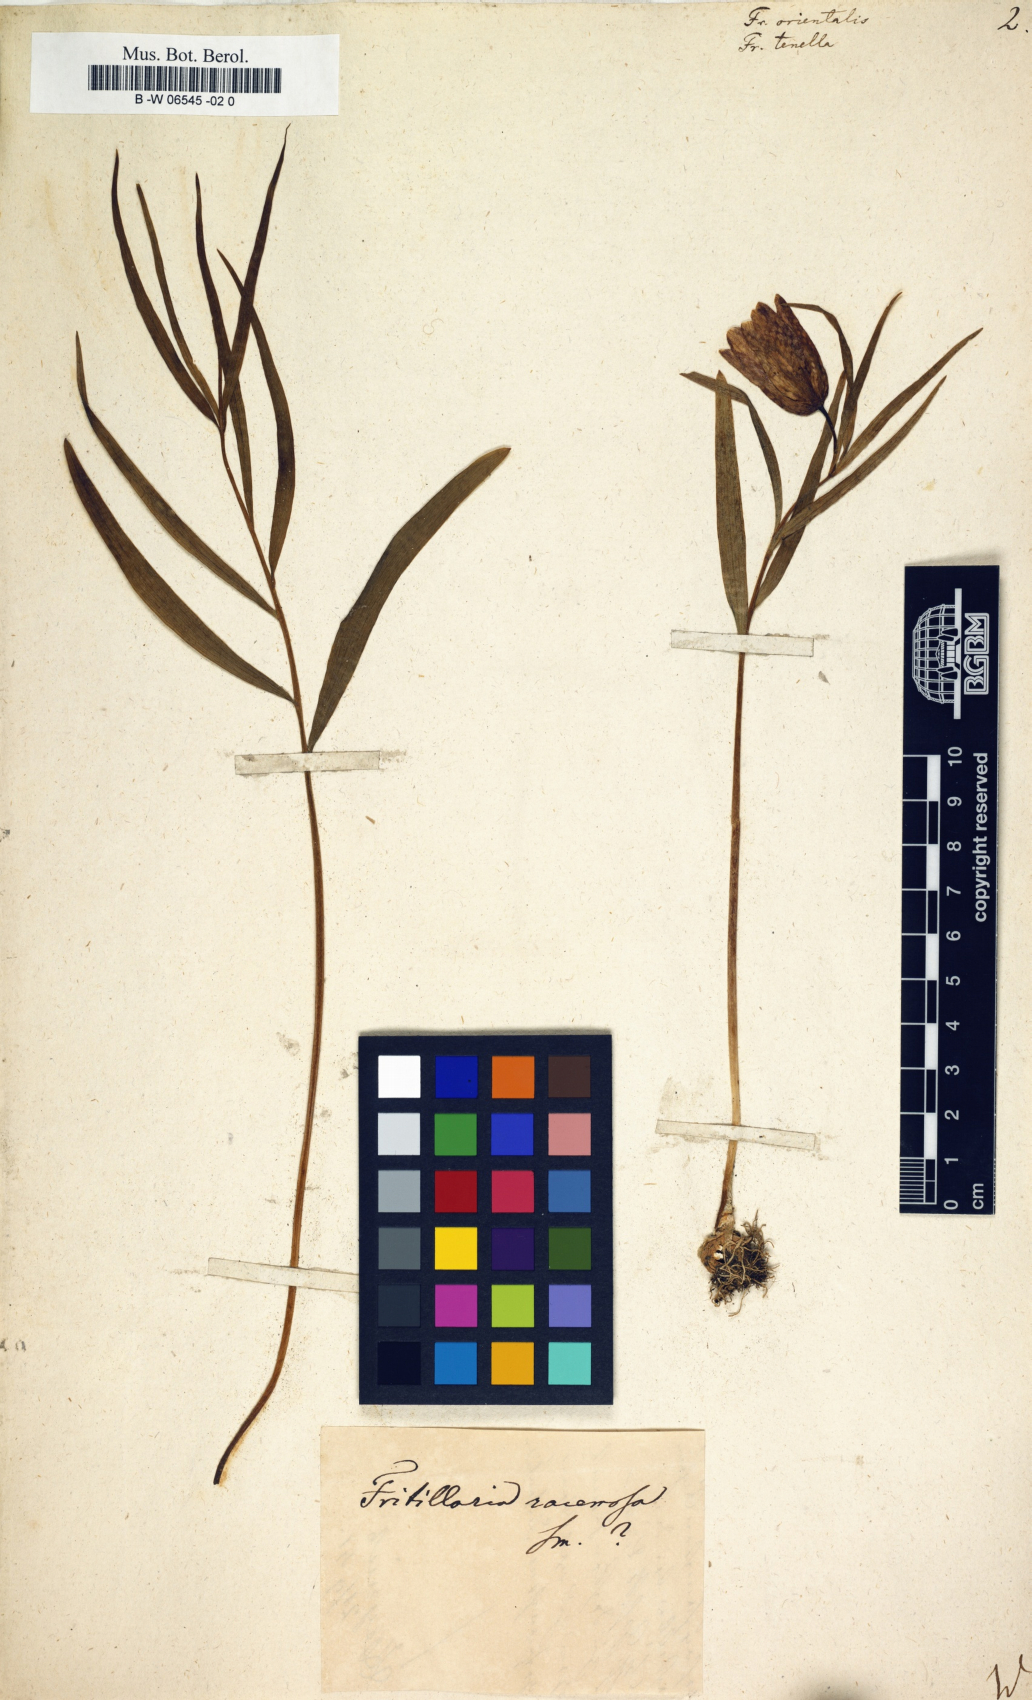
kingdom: Plantae
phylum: Tracheophyta
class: Liliopsida
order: Liliales
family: Liliaceae
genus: Fritillaria
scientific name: Fritillaria orientalis
